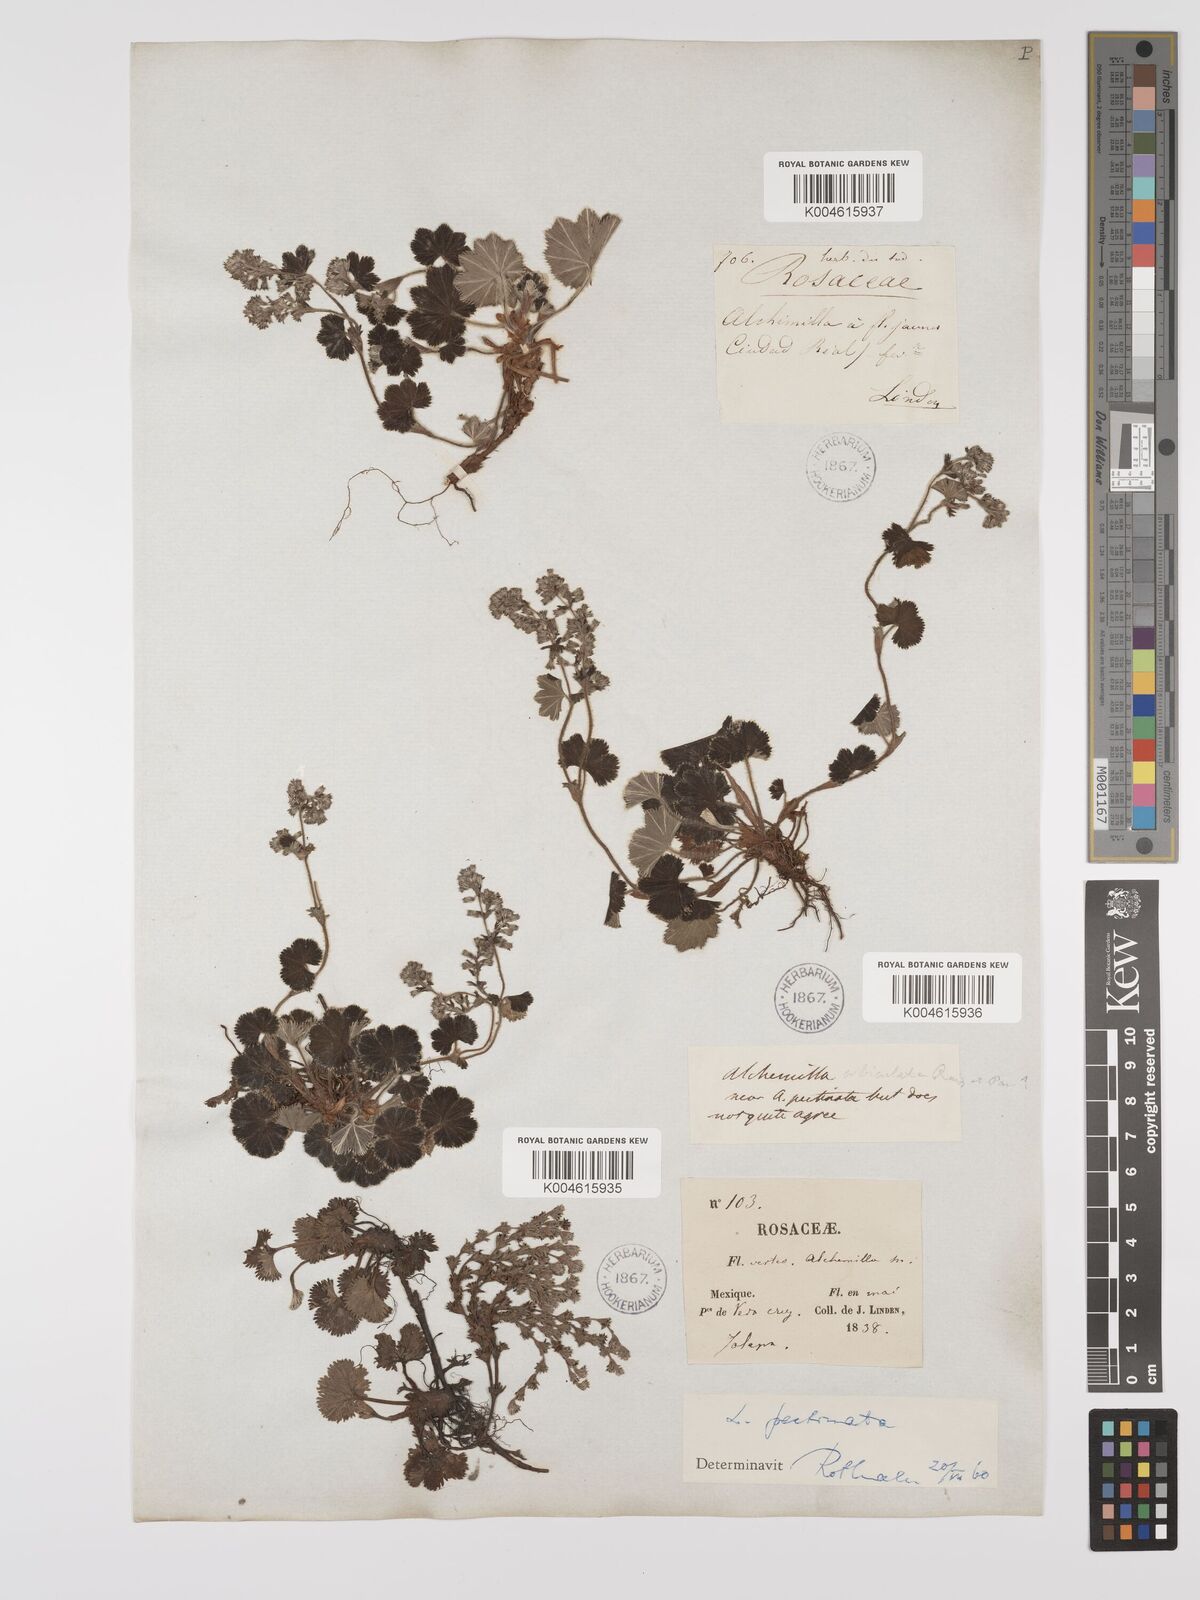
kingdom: Plantae
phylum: Tracheophyta
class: Magnoliopsida
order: Rosales
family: Rosaceae
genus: Lachemilla
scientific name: Lachemilla pectinata
